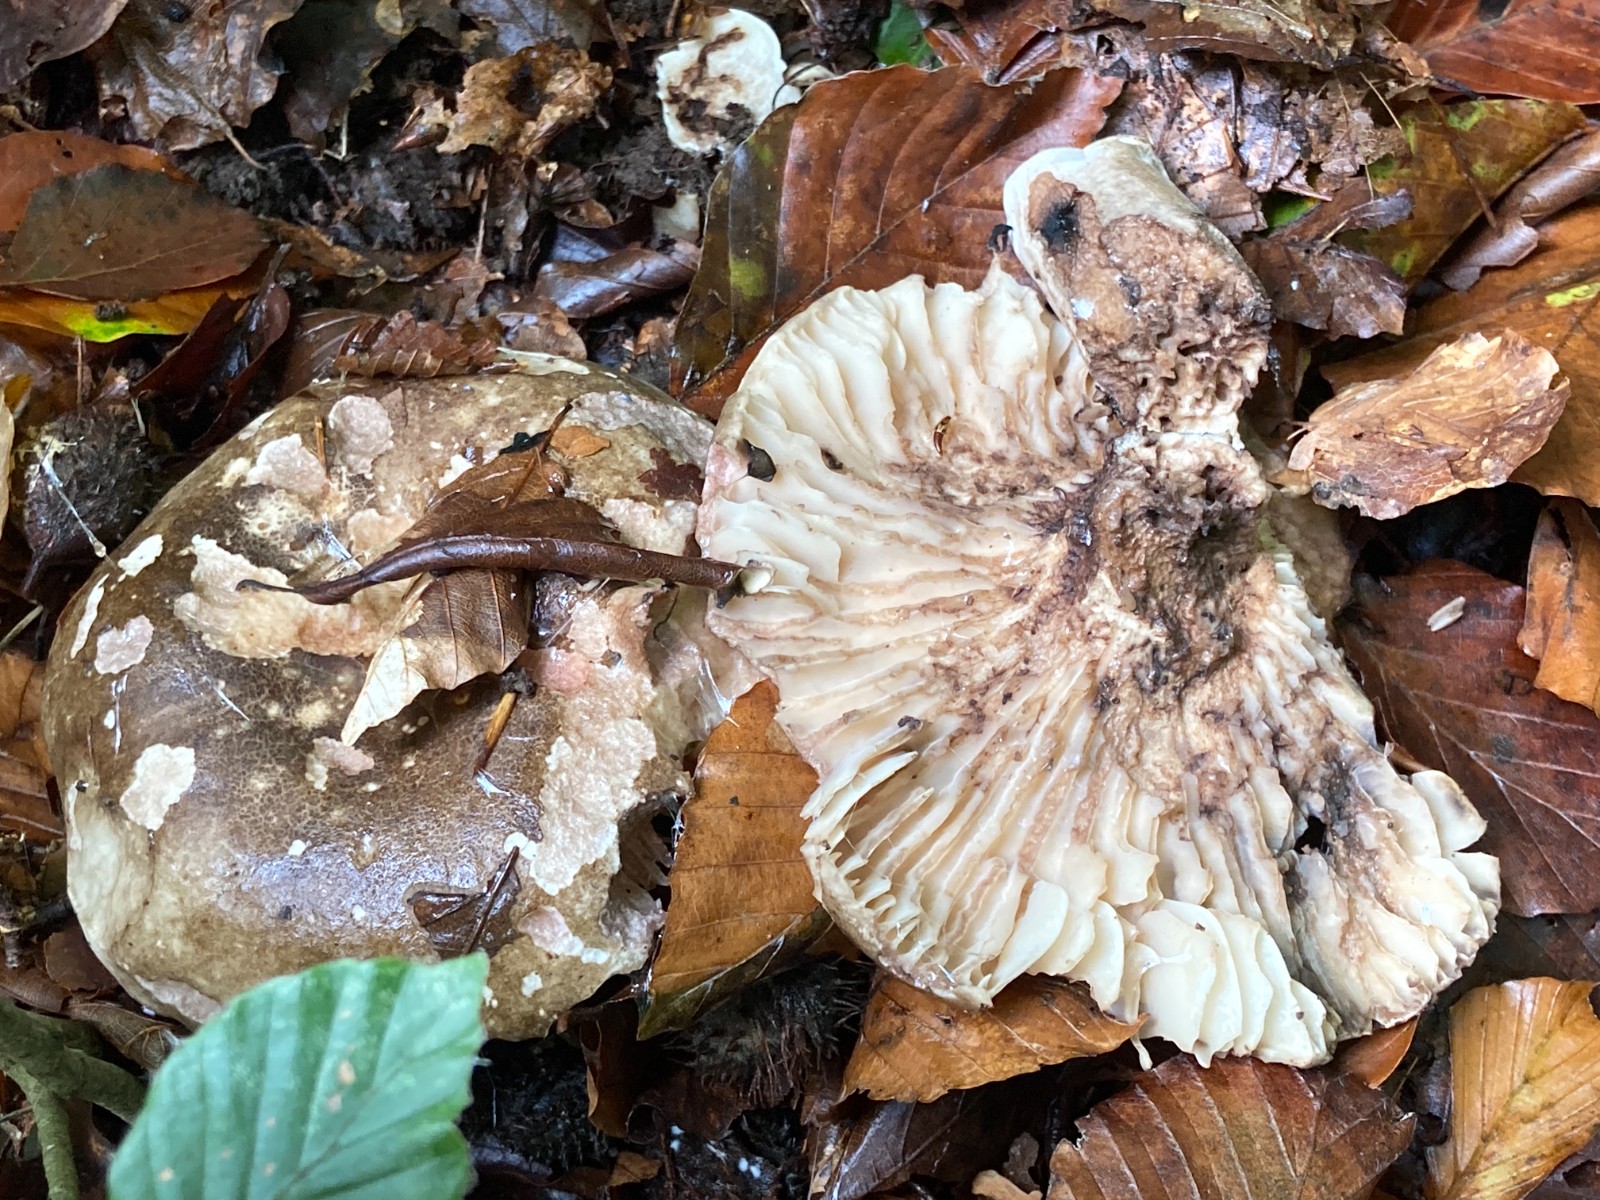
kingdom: Fungi
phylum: Basidiomycota
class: Agaricomycetes
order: Russulales
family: Russulaceae
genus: Russula
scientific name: Russula adusta
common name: sværtende skørhat
